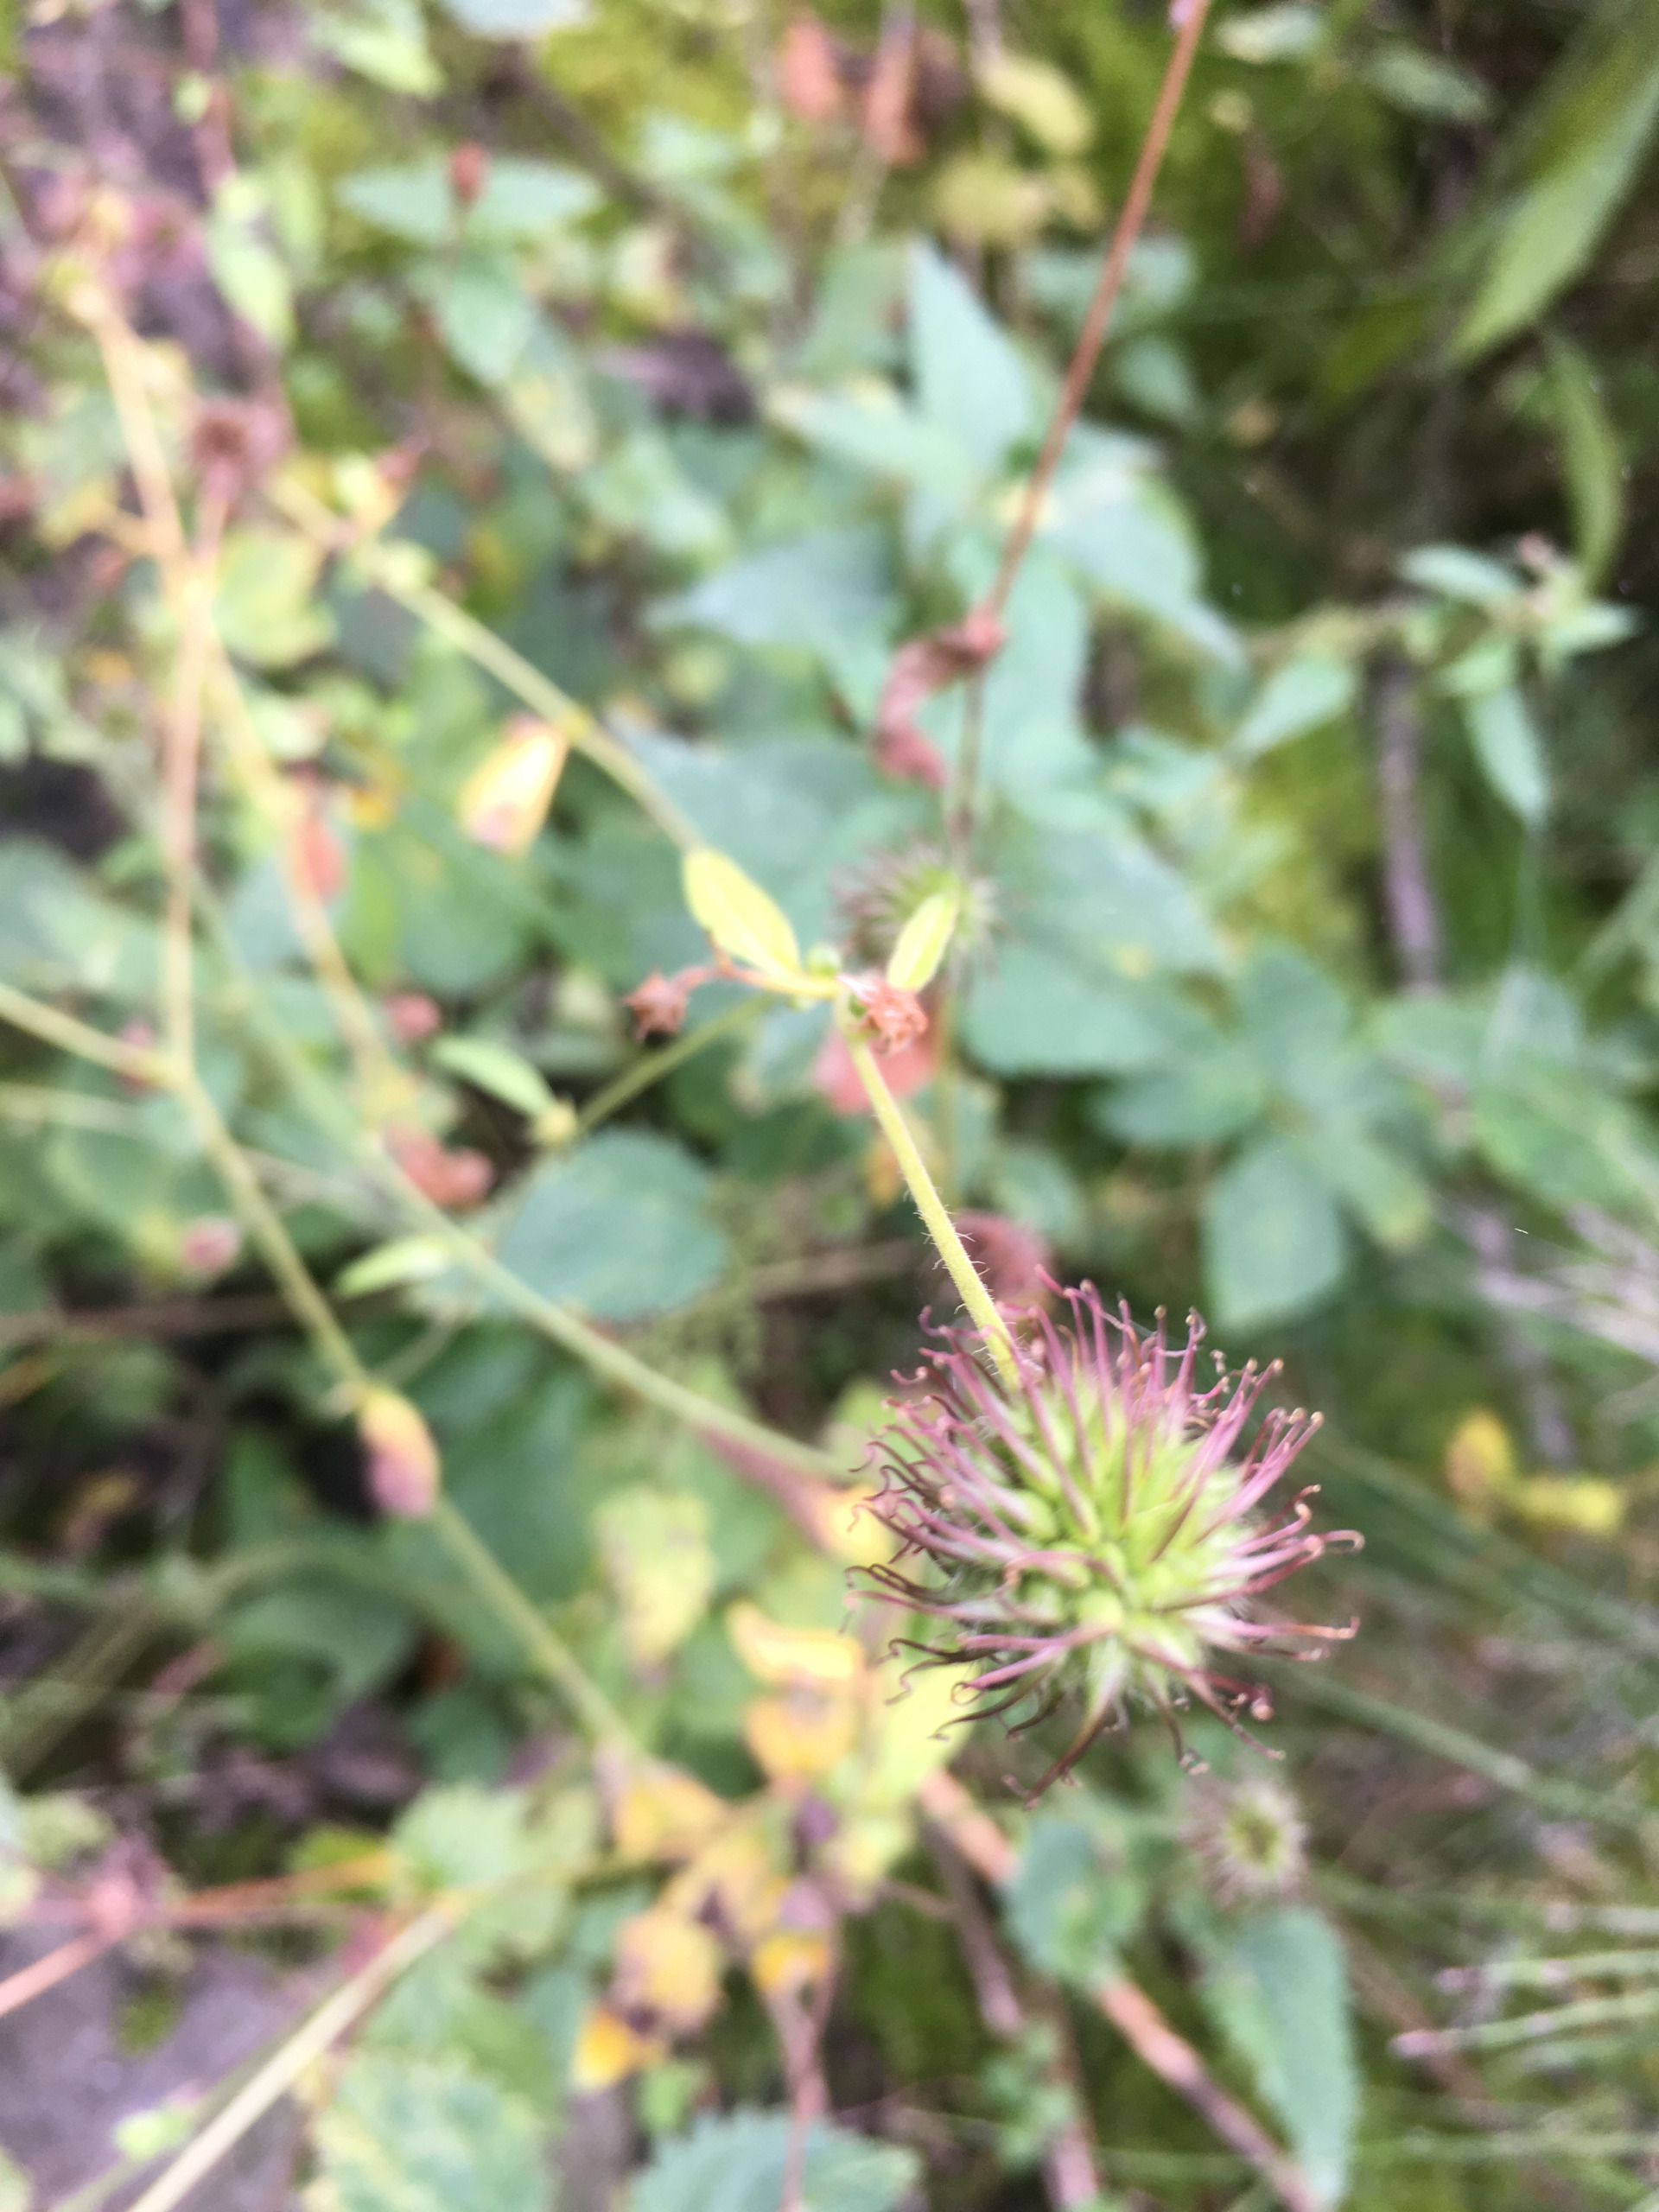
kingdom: Plantae
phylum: Tracheophyta
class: Magnoliopsida
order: Rosales
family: Rosaceae
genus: Geum
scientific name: Geum urbanum
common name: Feber-nellikerod
